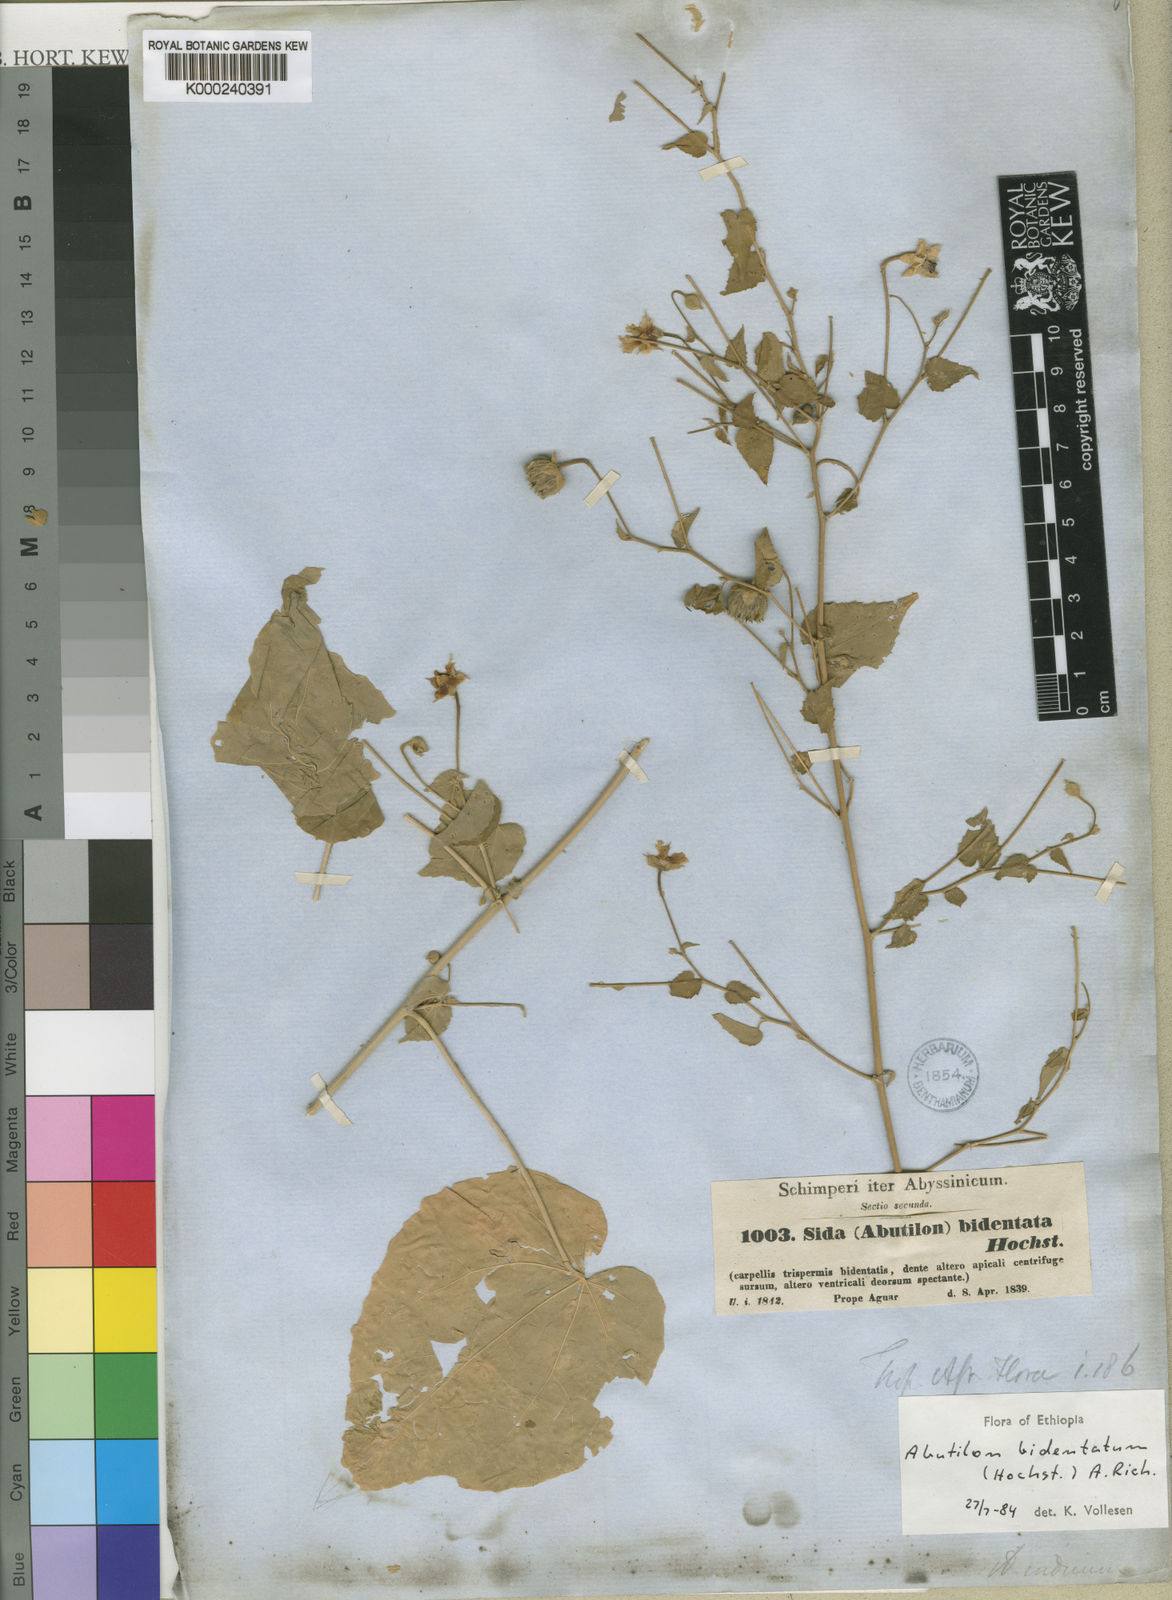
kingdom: Plantae
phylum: Tracheophyta
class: Magnoliopsida
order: Malvales
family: Malvaceae
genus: Abutilon
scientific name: Abutilon bidentatum
